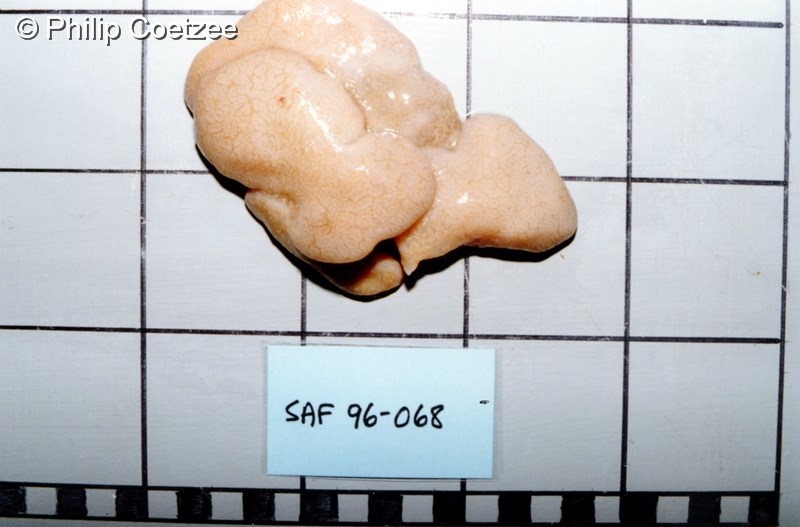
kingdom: Animalia
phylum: Chordata
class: Ascidiacea
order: Aplousobranchia
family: Polyclinidae
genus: Aplidium
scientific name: Aplidium
